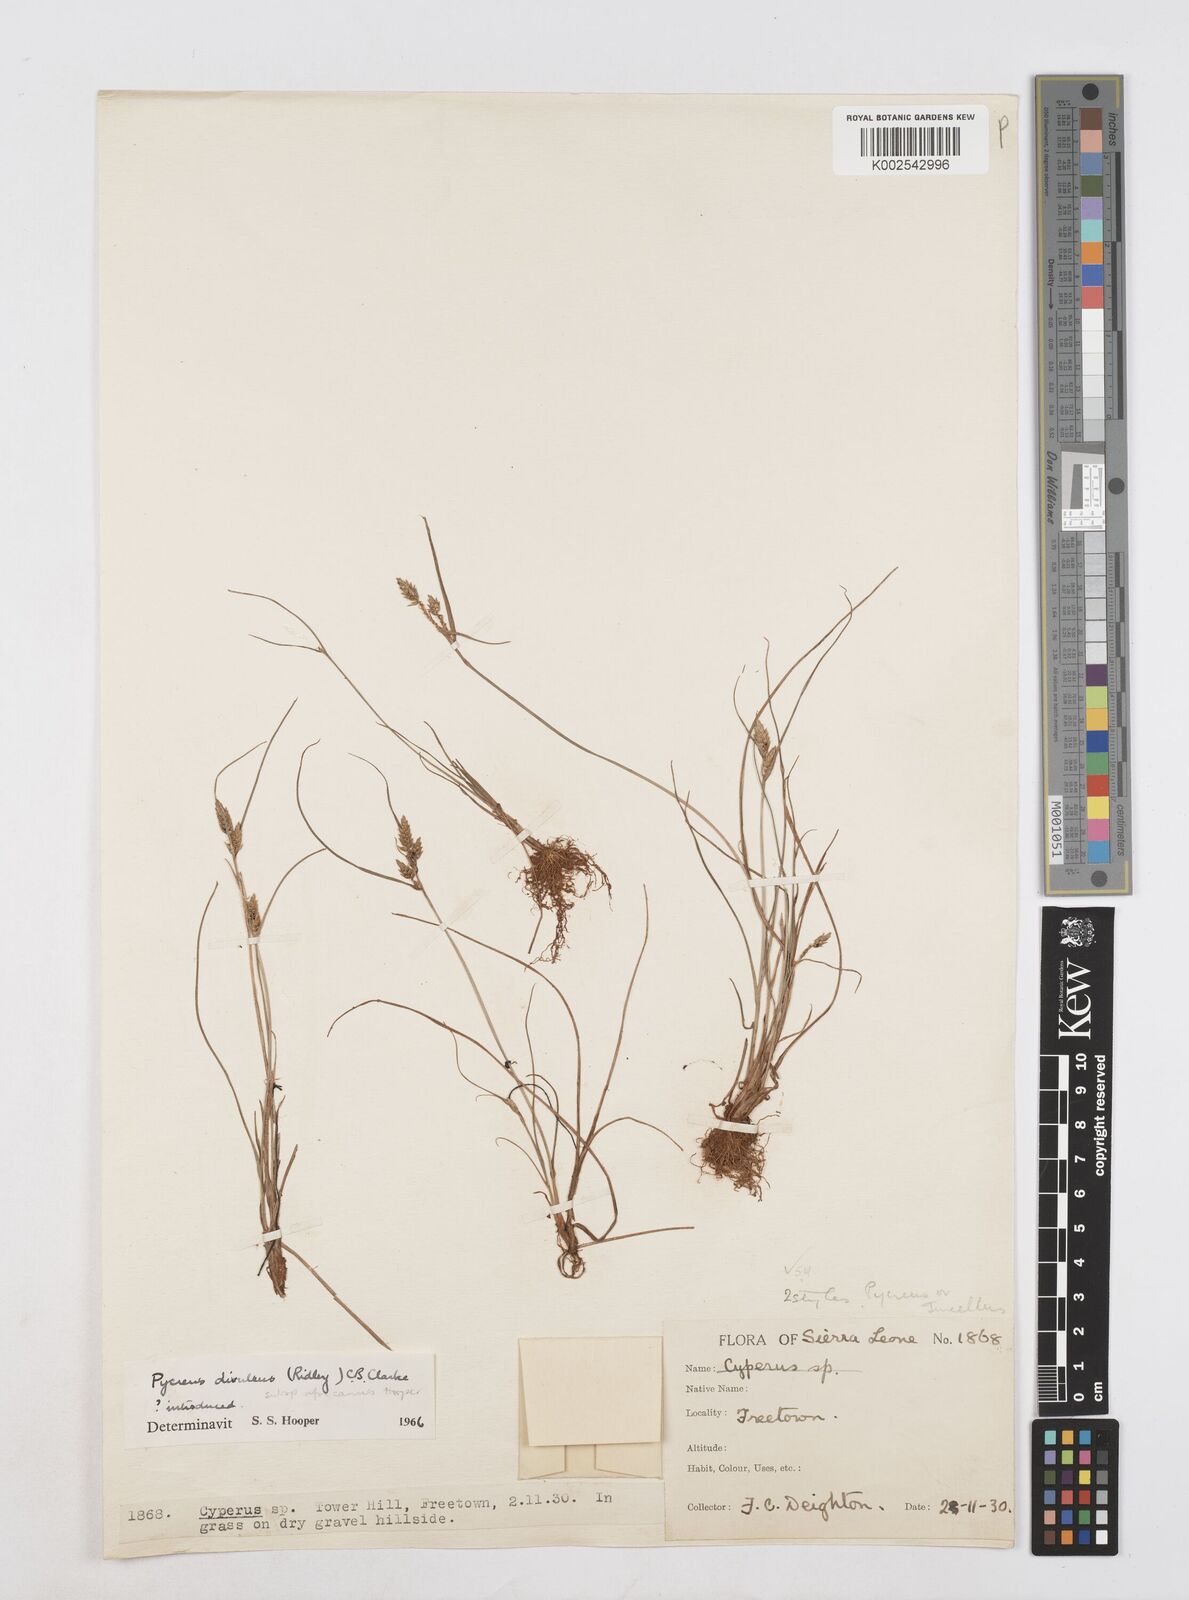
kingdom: Plantae
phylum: Tracheophyta
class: Liliopsida
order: Poales
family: Cyperaceae
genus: Cyperus
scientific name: Cyperus divulsus
